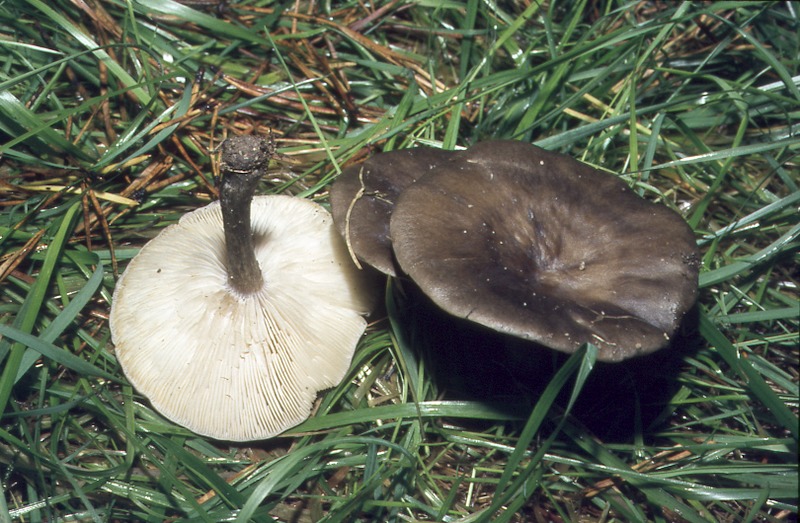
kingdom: Fungi
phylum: Basidiomycota
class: Agaricomycetes
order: Agaricales
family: Pseudoclitocybaceae
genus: Pseudoclitocybe
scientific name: Pseudoclitocybe cyathiformis
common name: Goblet
